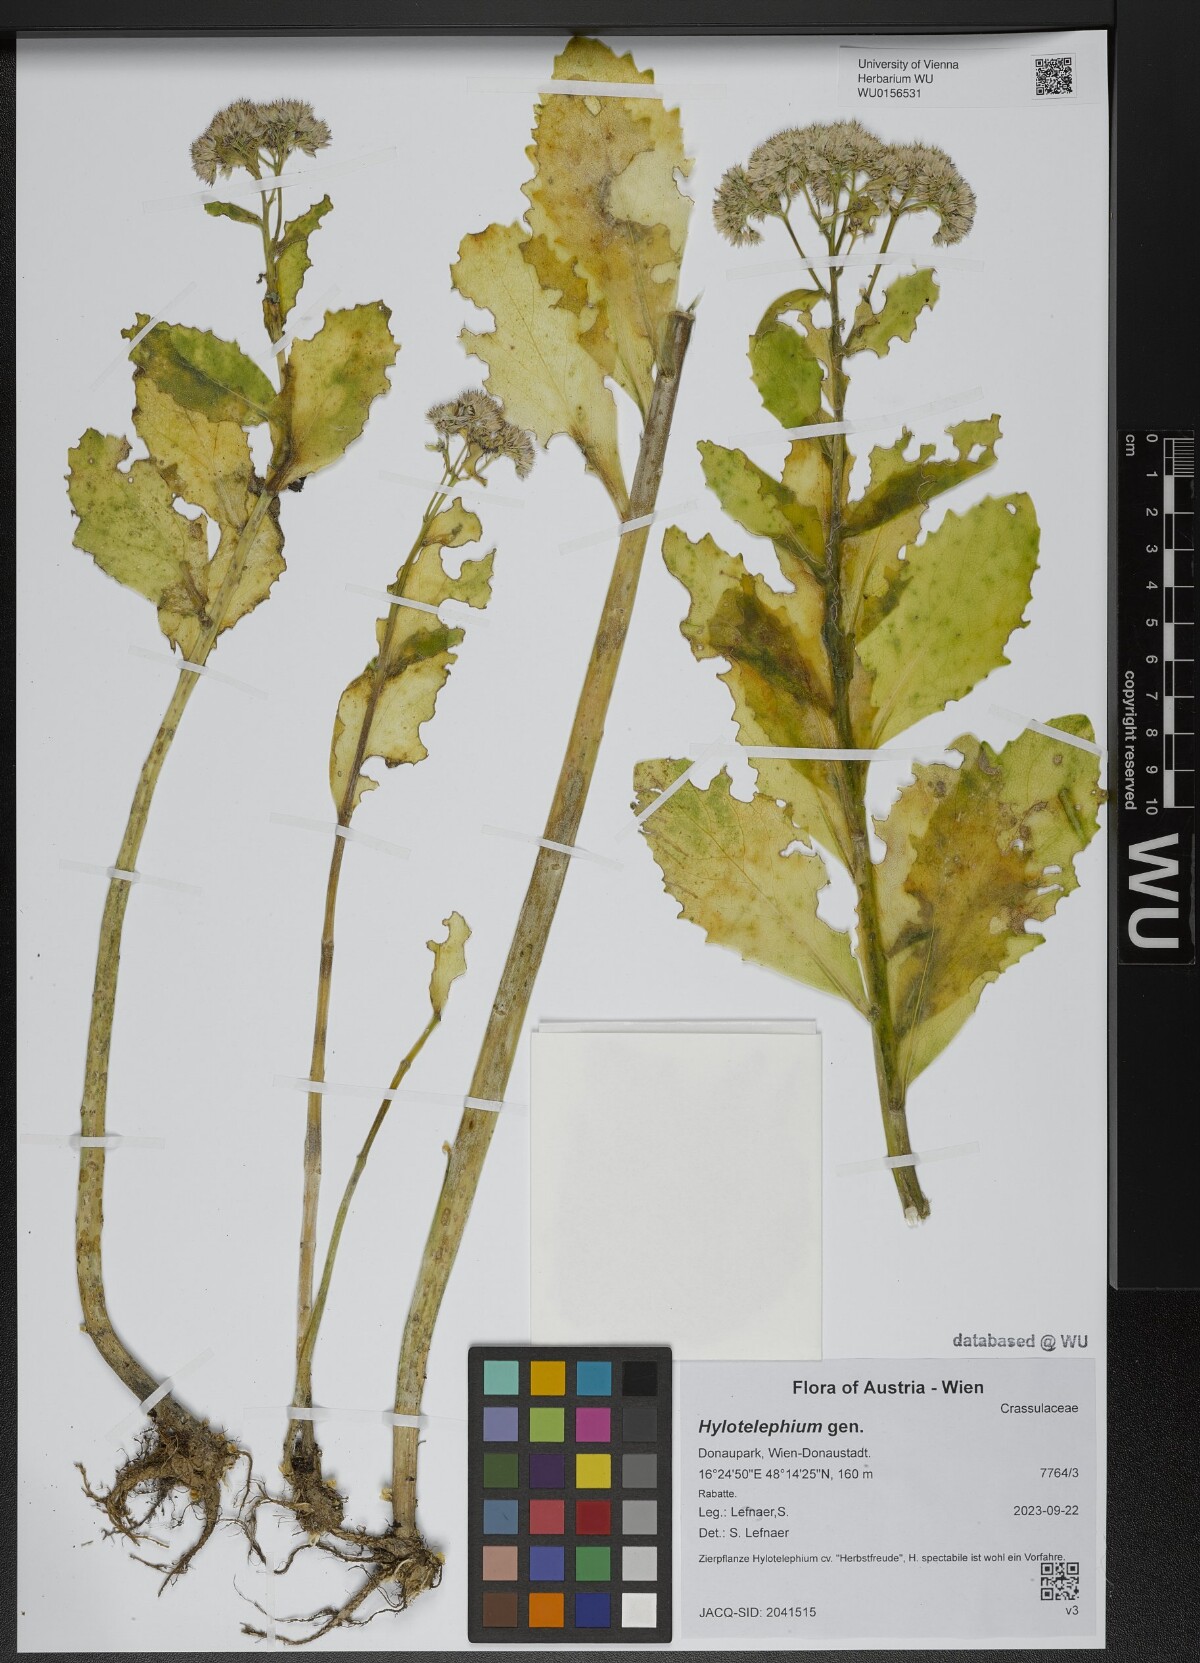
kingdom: Plantae
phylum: Tracheophyta
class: Magnoliopsida
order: Saxifragales
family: Crassulaceae
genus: Hylotelephium
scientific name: Hylotelephium
